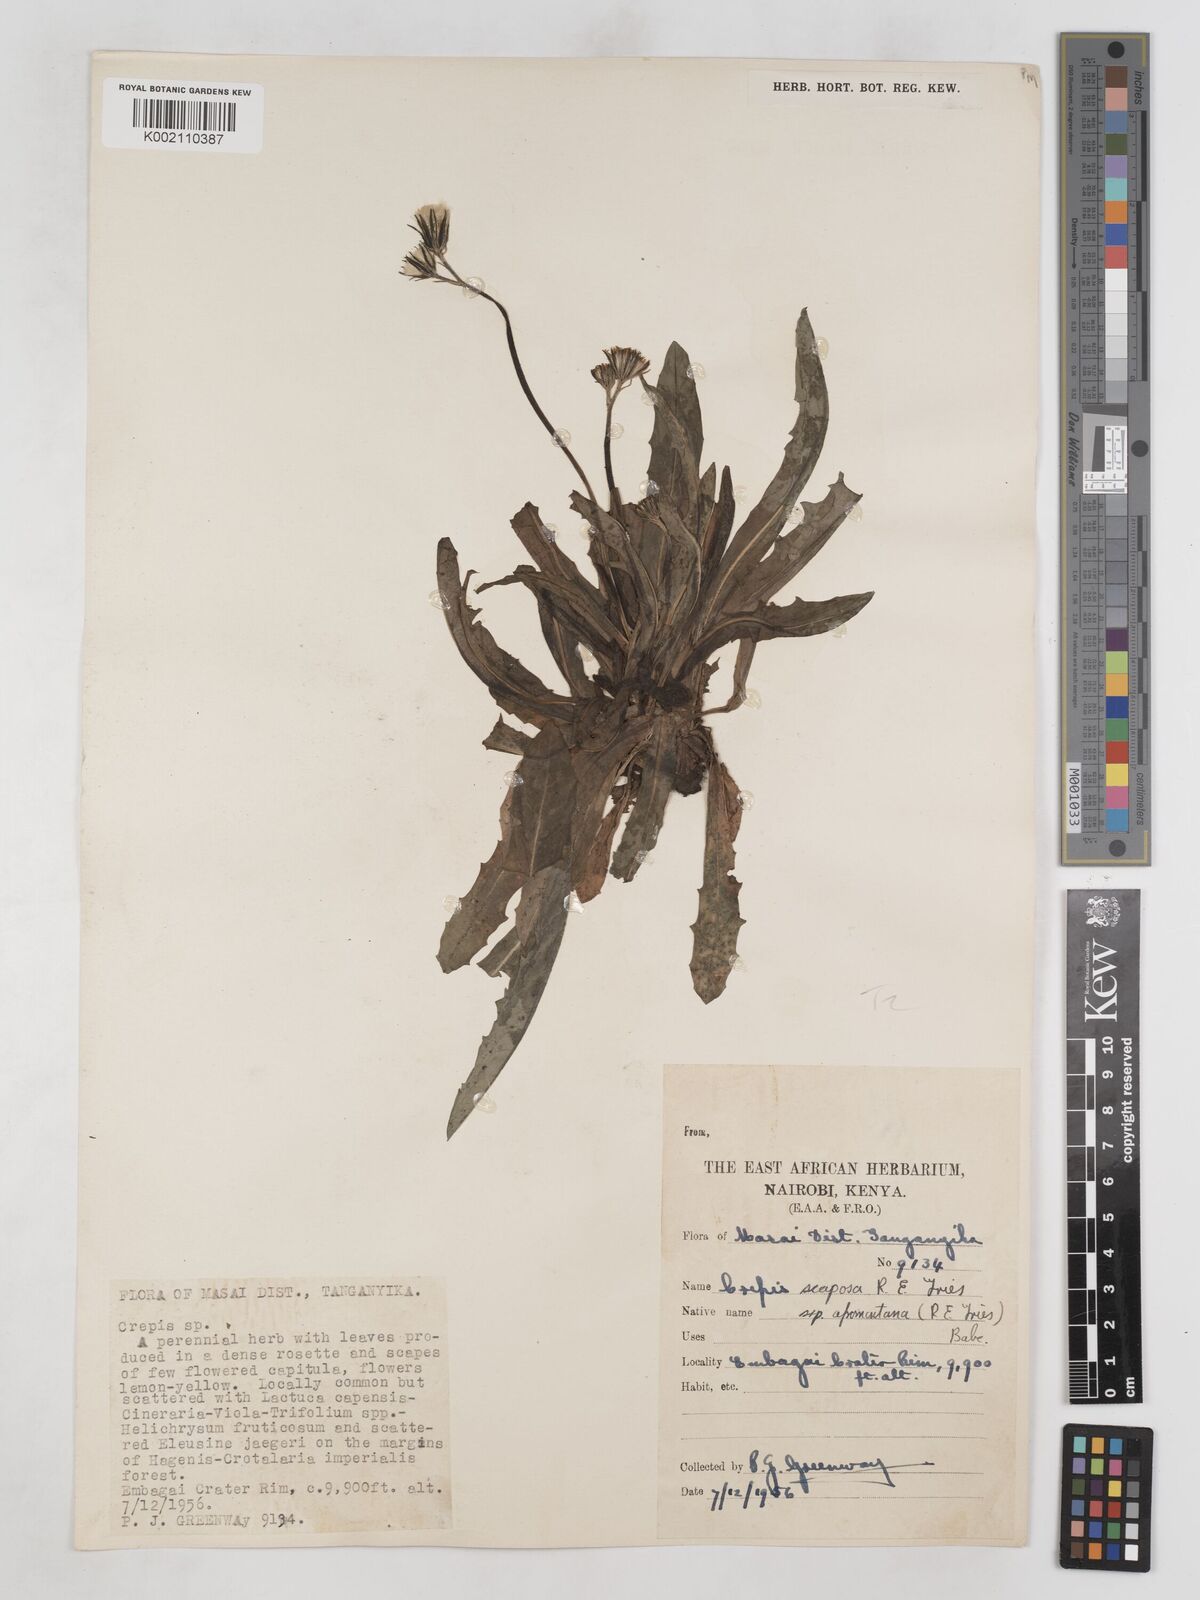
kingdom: Plantae
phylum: Tracheophyta
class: Magnoliopsida
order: Asterales
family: Asteraceae
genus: Crepis
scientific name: Crepis carbonaria
